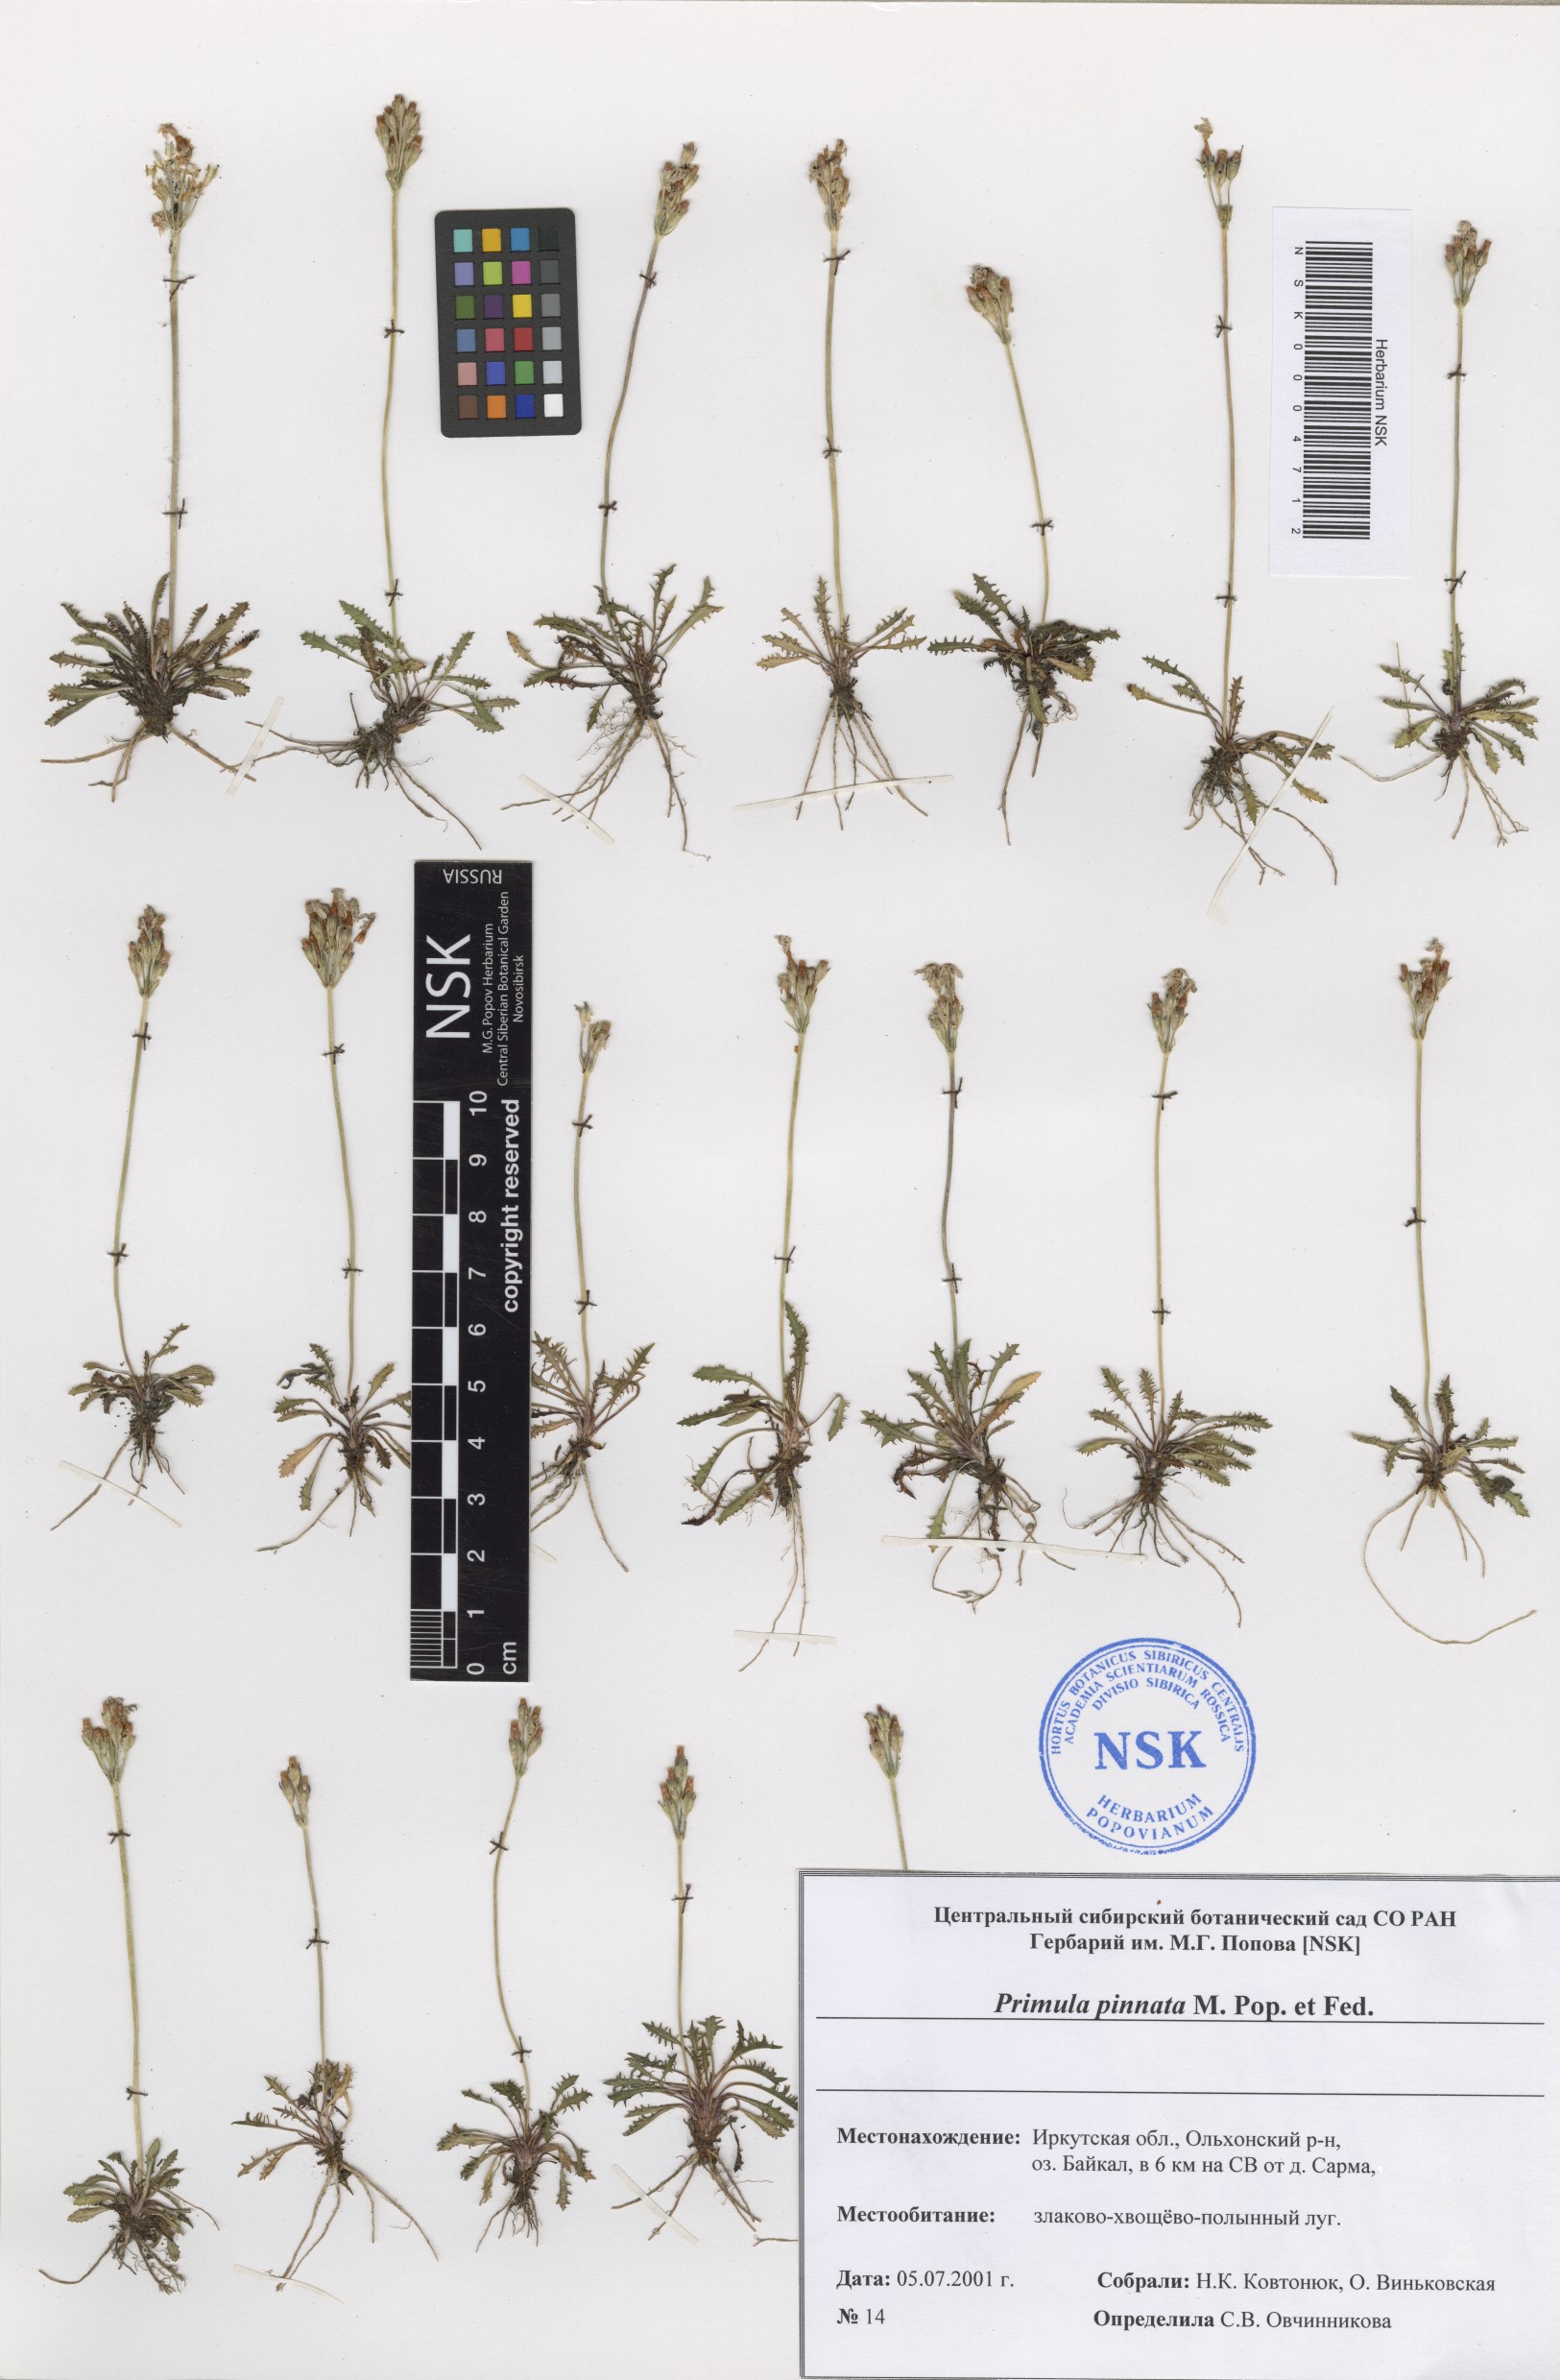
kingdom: Plantae
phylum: Tracheophyta
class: Magnoliopsida
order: Ericales
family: Primulaceae
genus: Primula
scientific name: Primula pinnata
